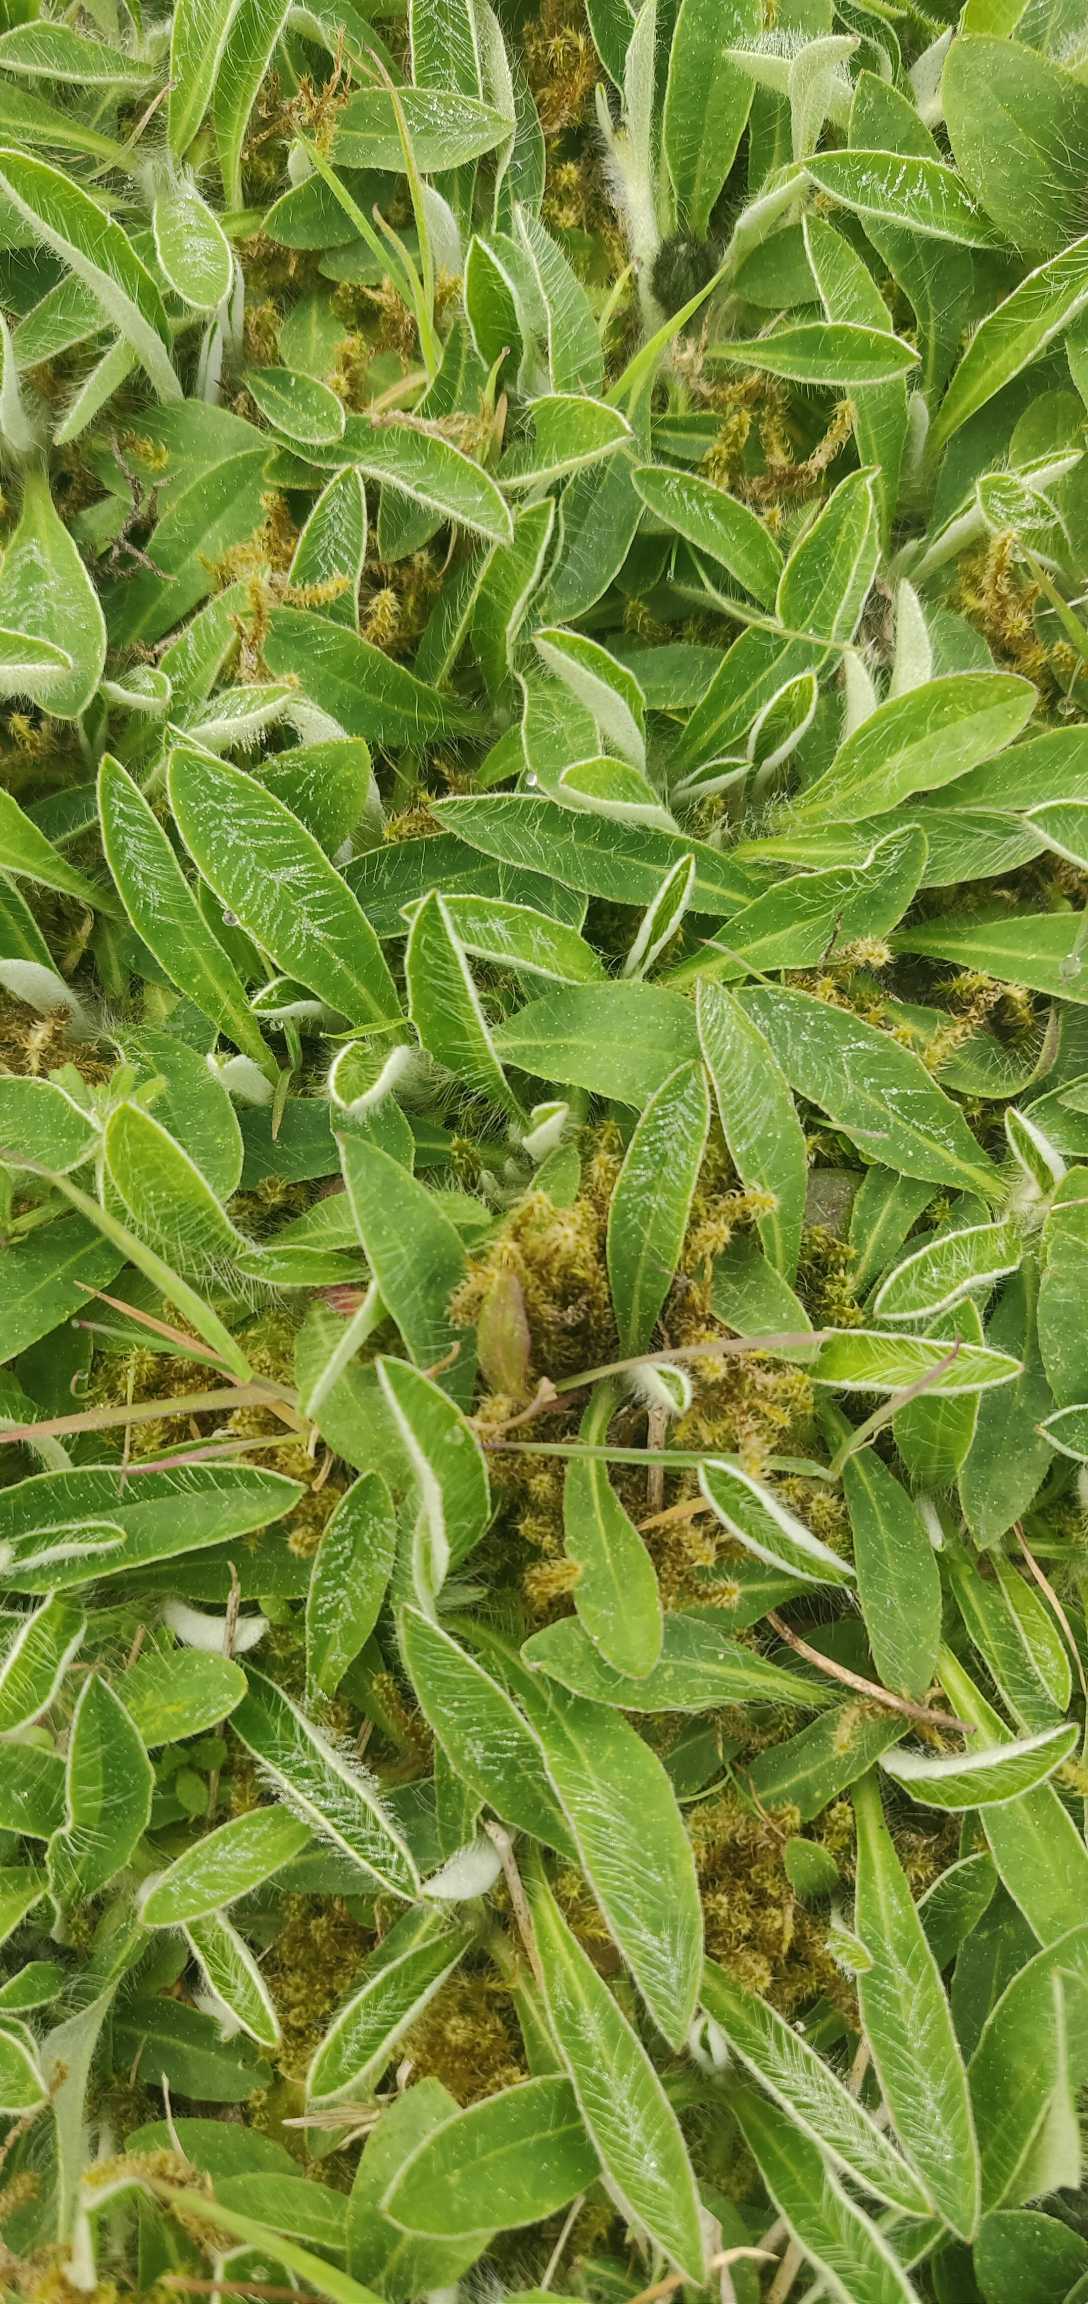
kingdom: Plantae
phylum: Tracheophyta
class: Magnoliopsida
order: Asterales
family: Asteraceae
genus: Pilosella
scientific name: Pilosella officinarum
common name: Håret høgeurt
